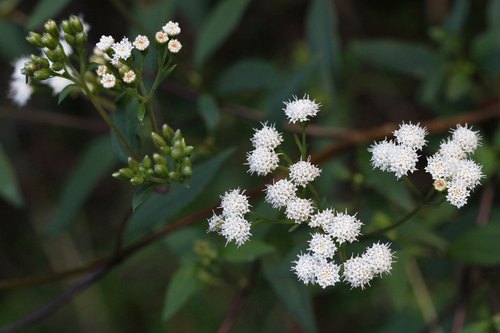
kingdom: Plantae
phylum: Tracheophyta
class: Magnoliopsida
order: Asterales
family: Asteraceae
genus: Ageratina
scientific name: Ageratina adenophora
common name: Sticky snakeroot
